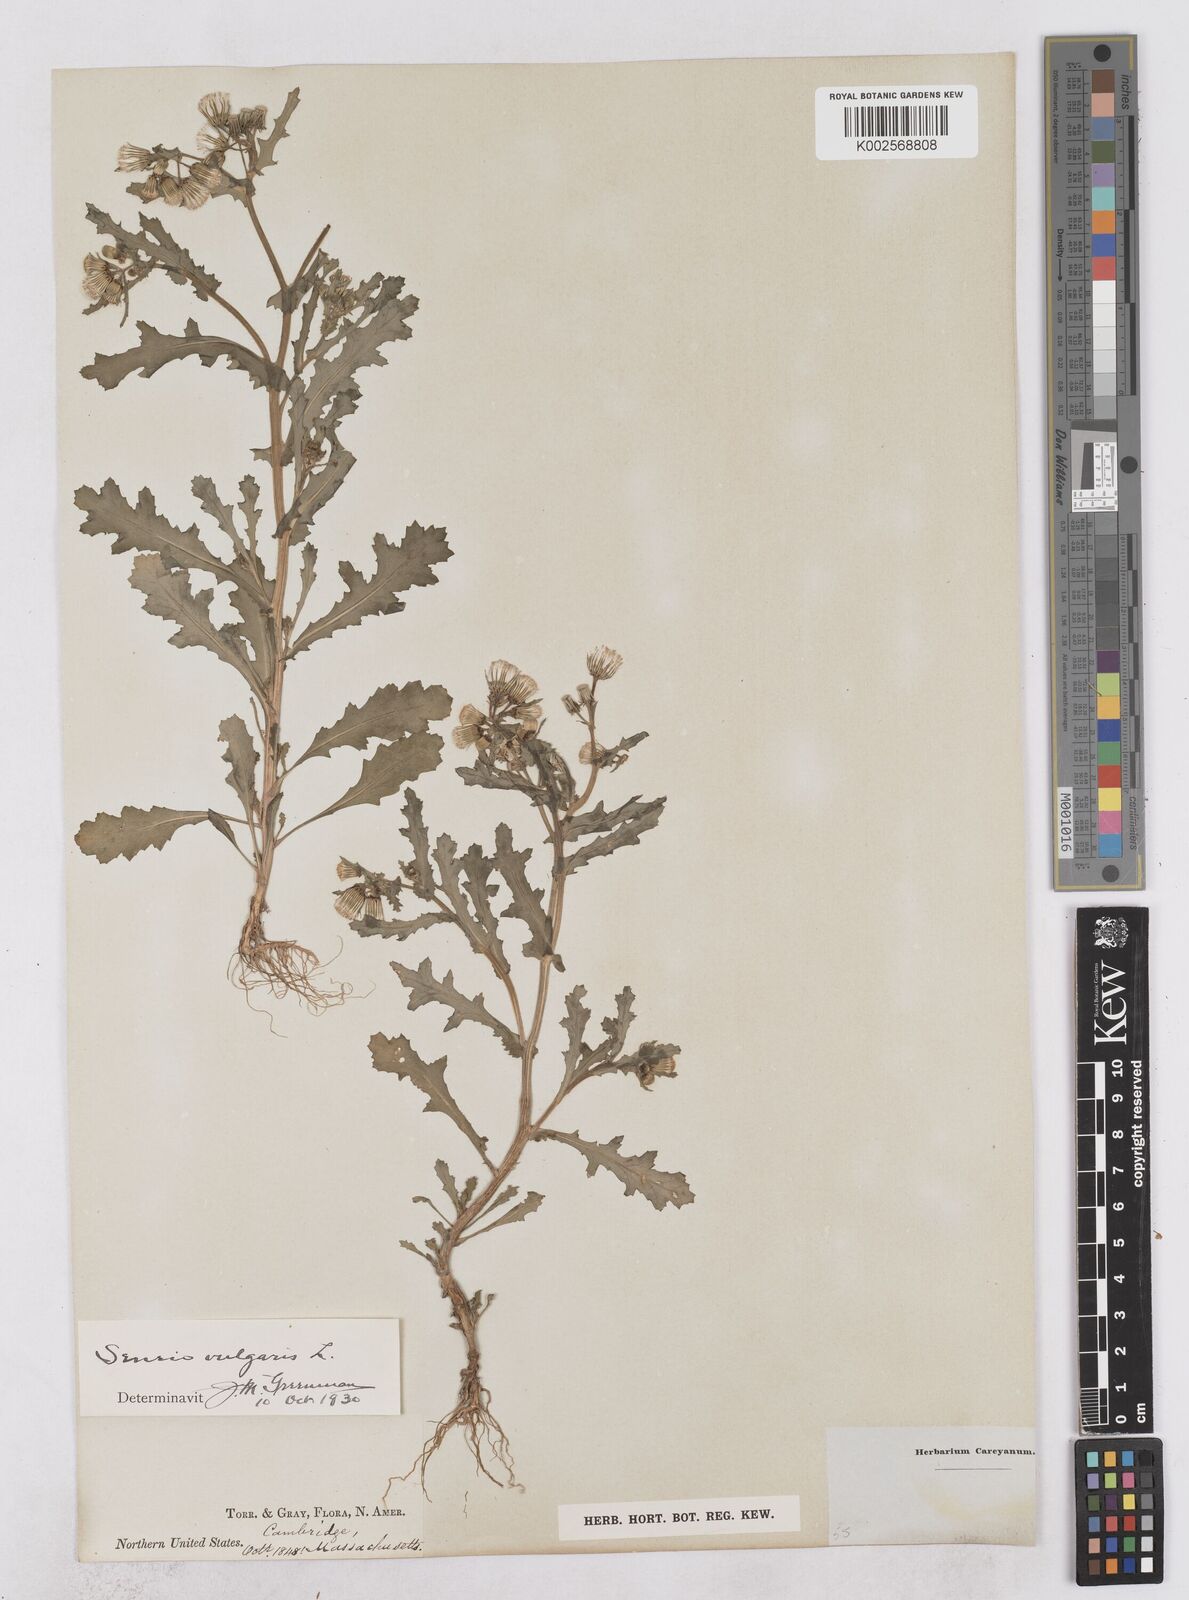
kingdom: Plantae
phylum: Tracheophyta
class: Magnoliopsida
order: Asterales
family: Asteraceae
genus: Senecio
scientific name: Senecio vulgaris
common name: Old-man-in-the-spring
